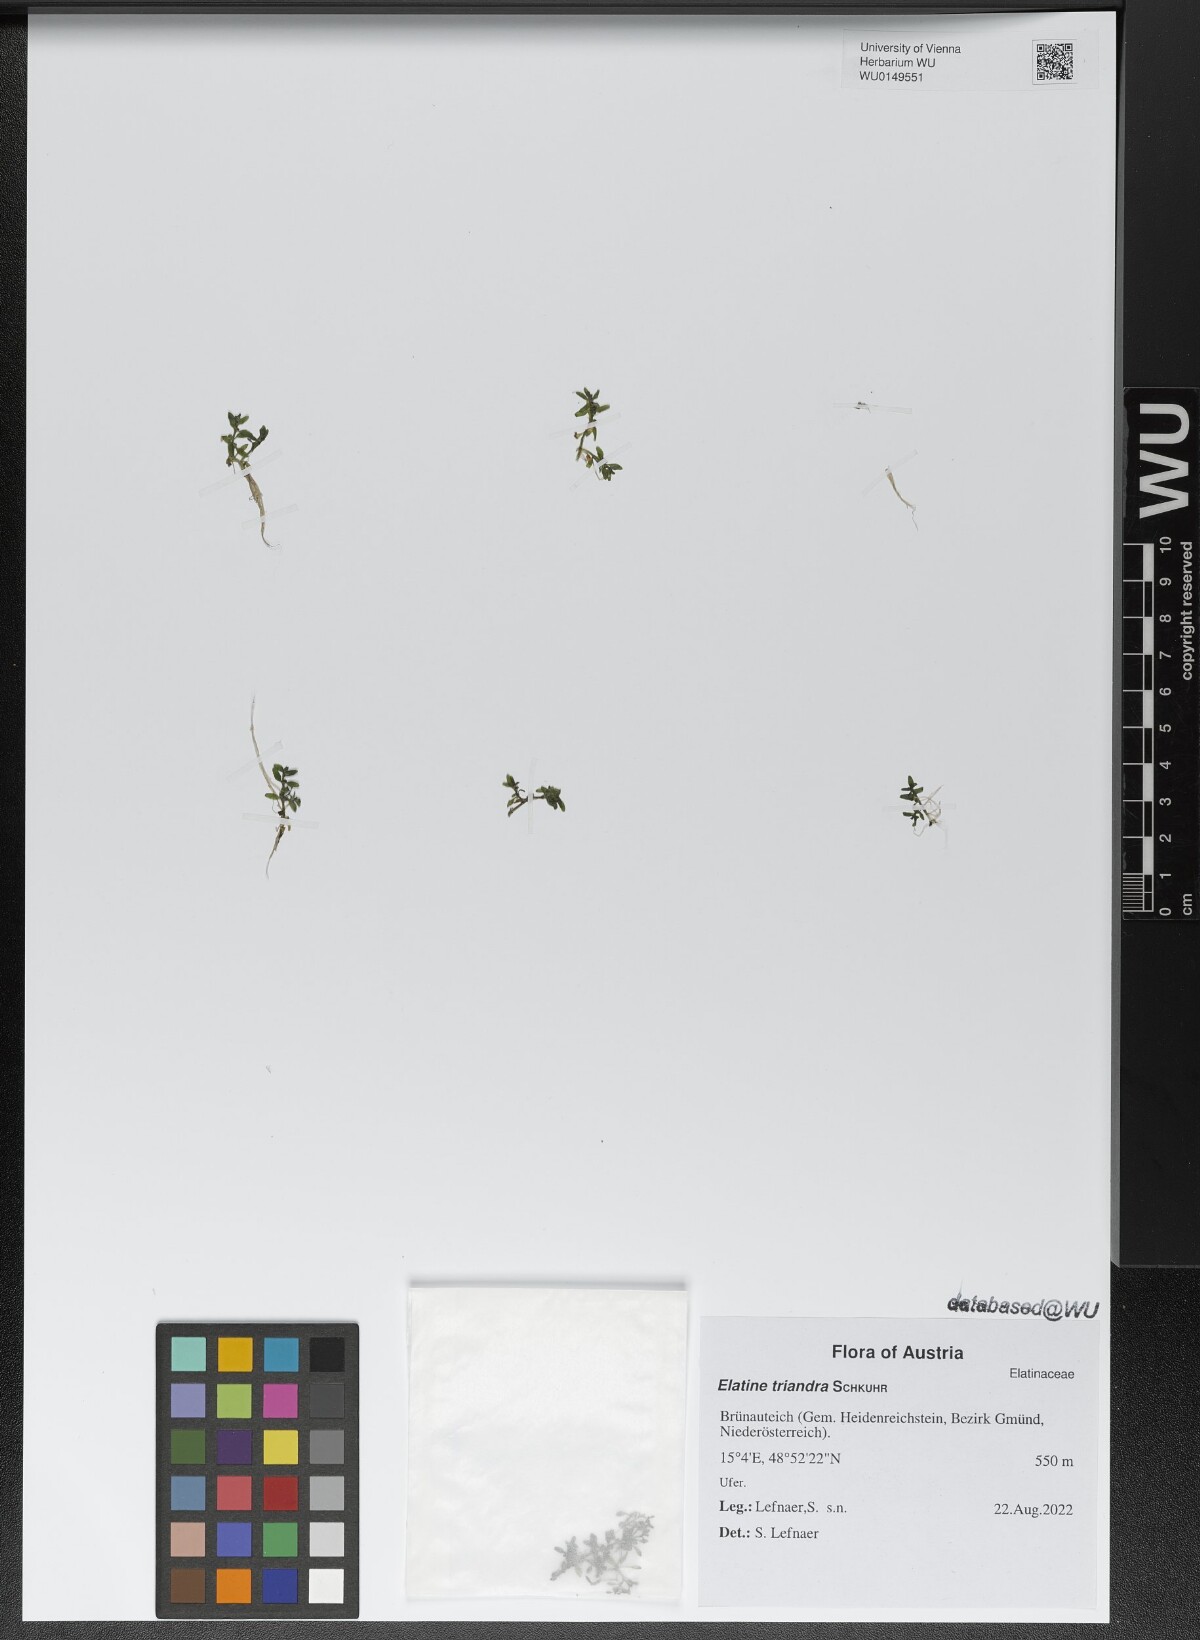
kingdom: Plantae
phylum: Tracheophyta
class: Magnoliopsida
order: Malpighiales
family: Elatinaceae
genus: Elatine
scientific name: Elatine triandra
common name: Three-stamened waterwort
